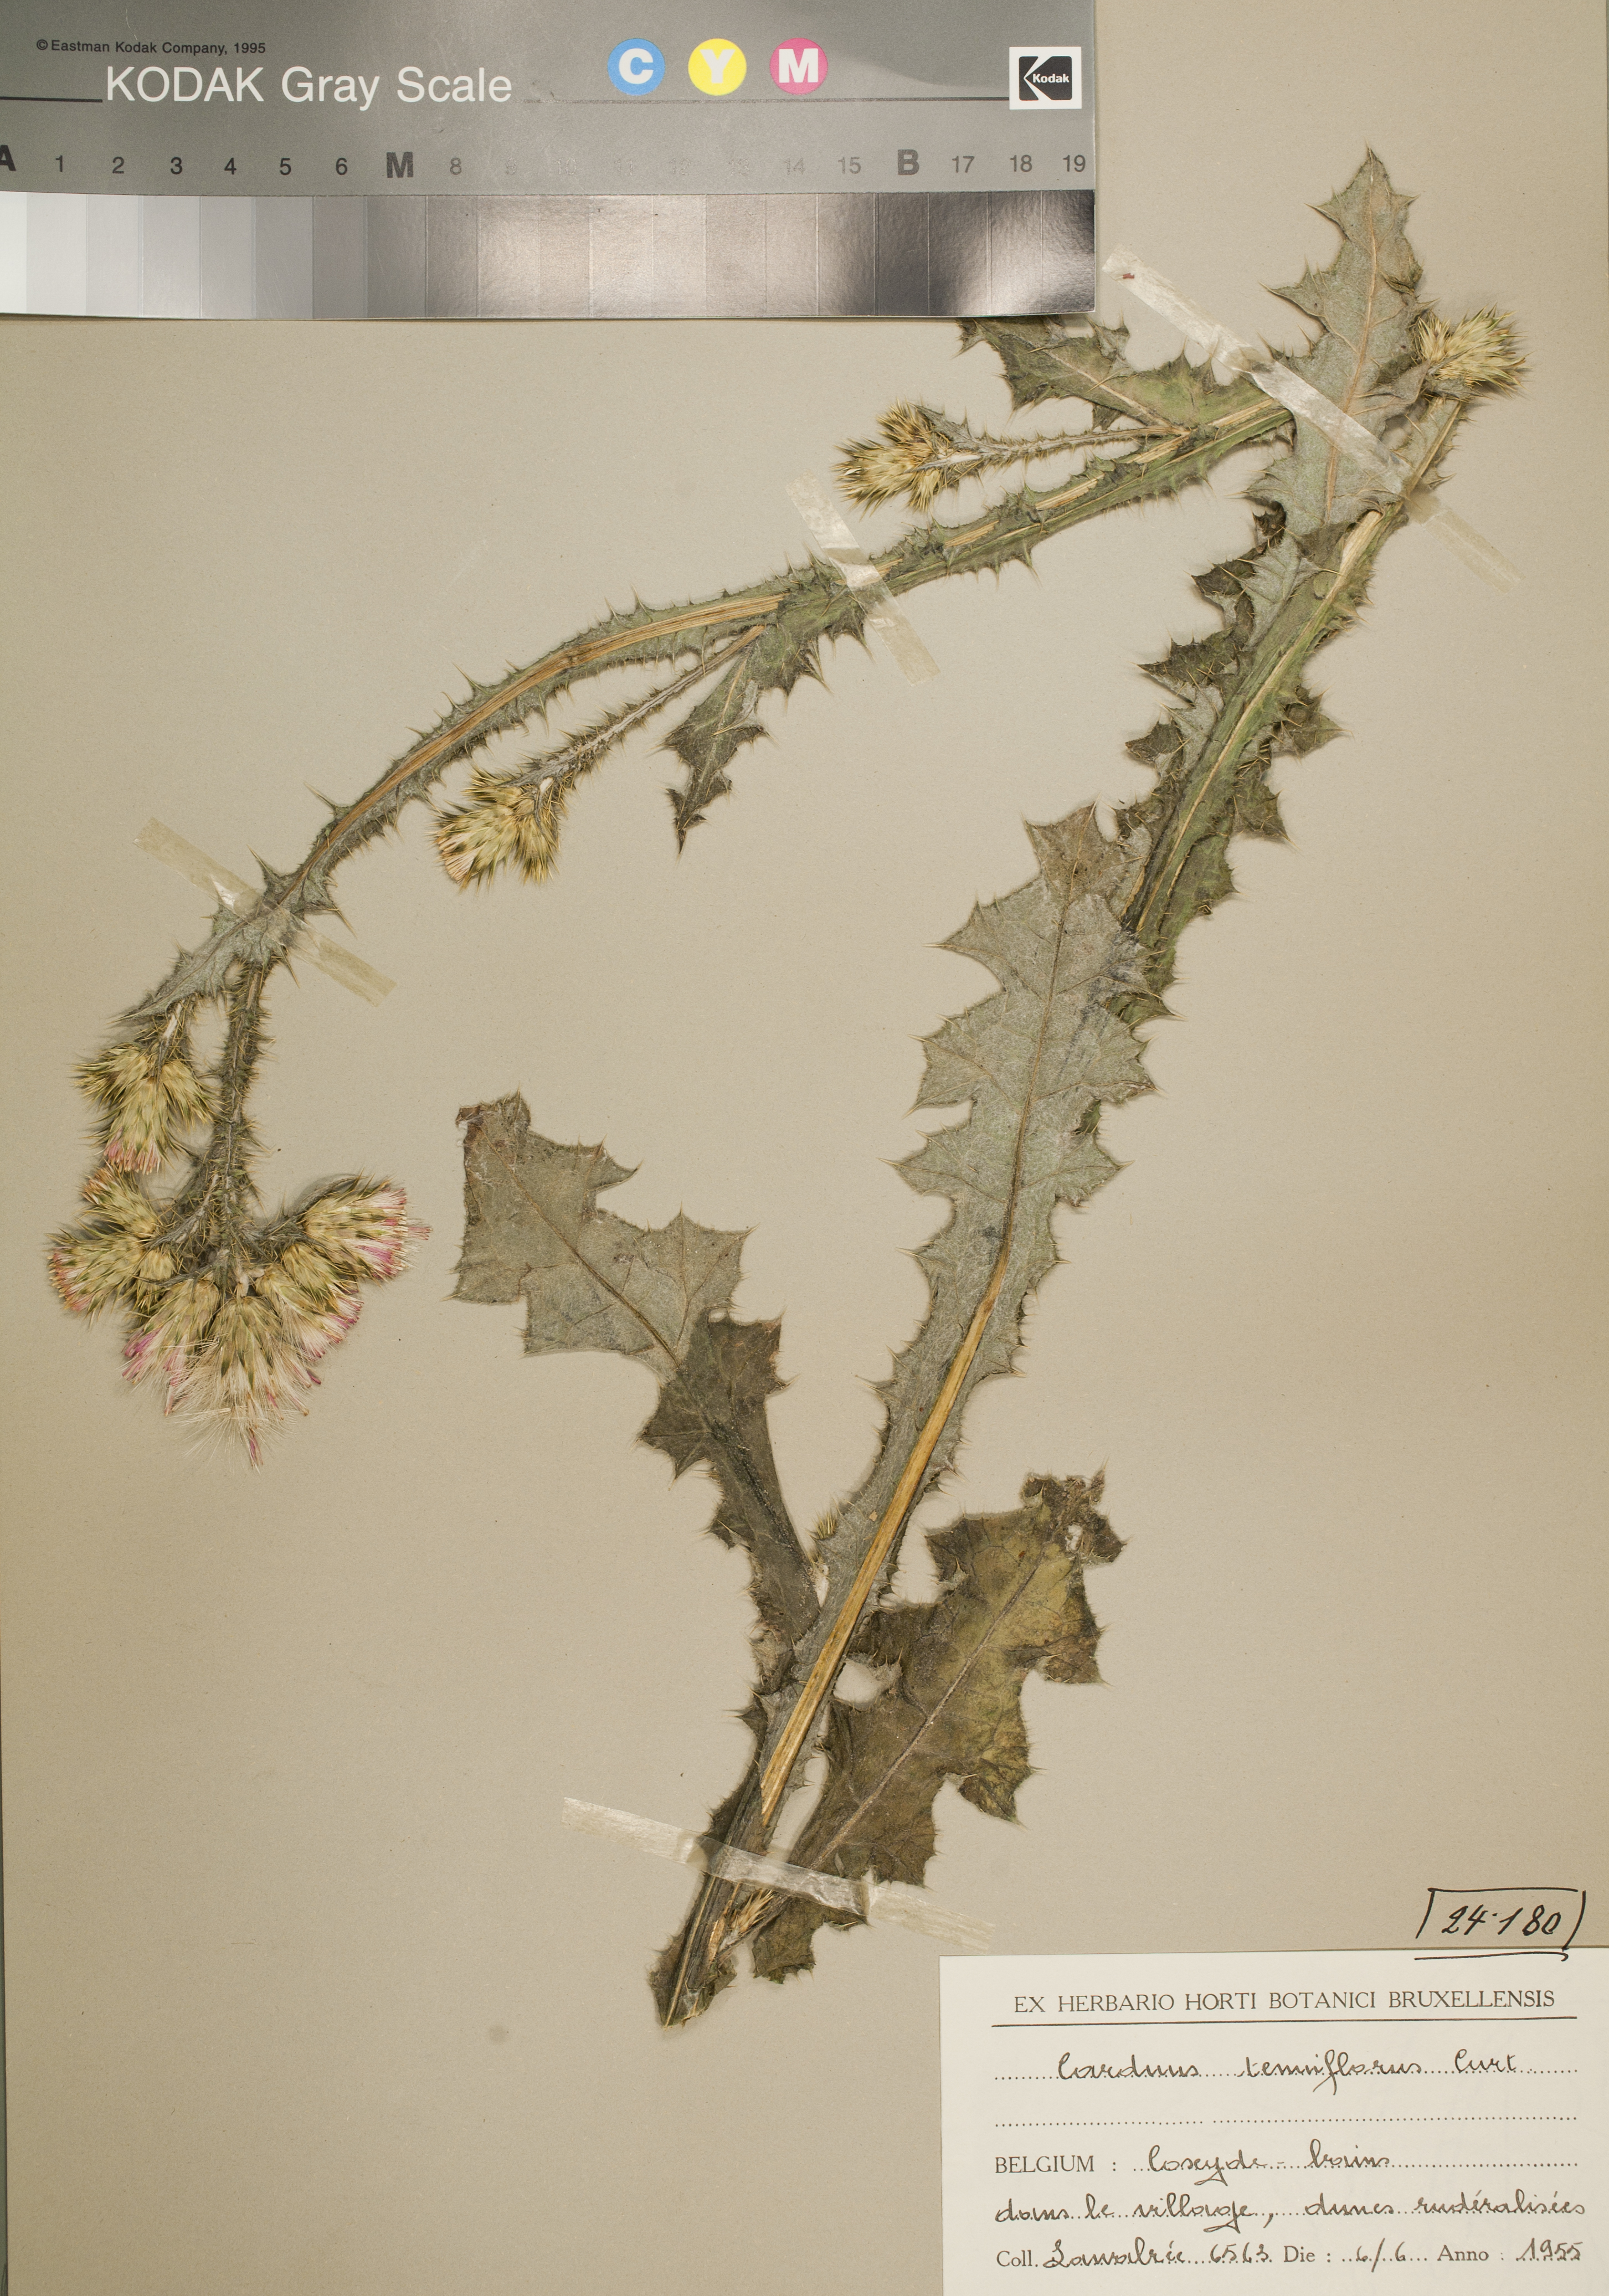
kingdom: Plantae
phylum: Tracheophyta
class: Magnoliopsida
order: Asterales
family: Asteraceae
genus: Carduus
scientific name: Carduus tenuiflorus
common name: Slender thistle
